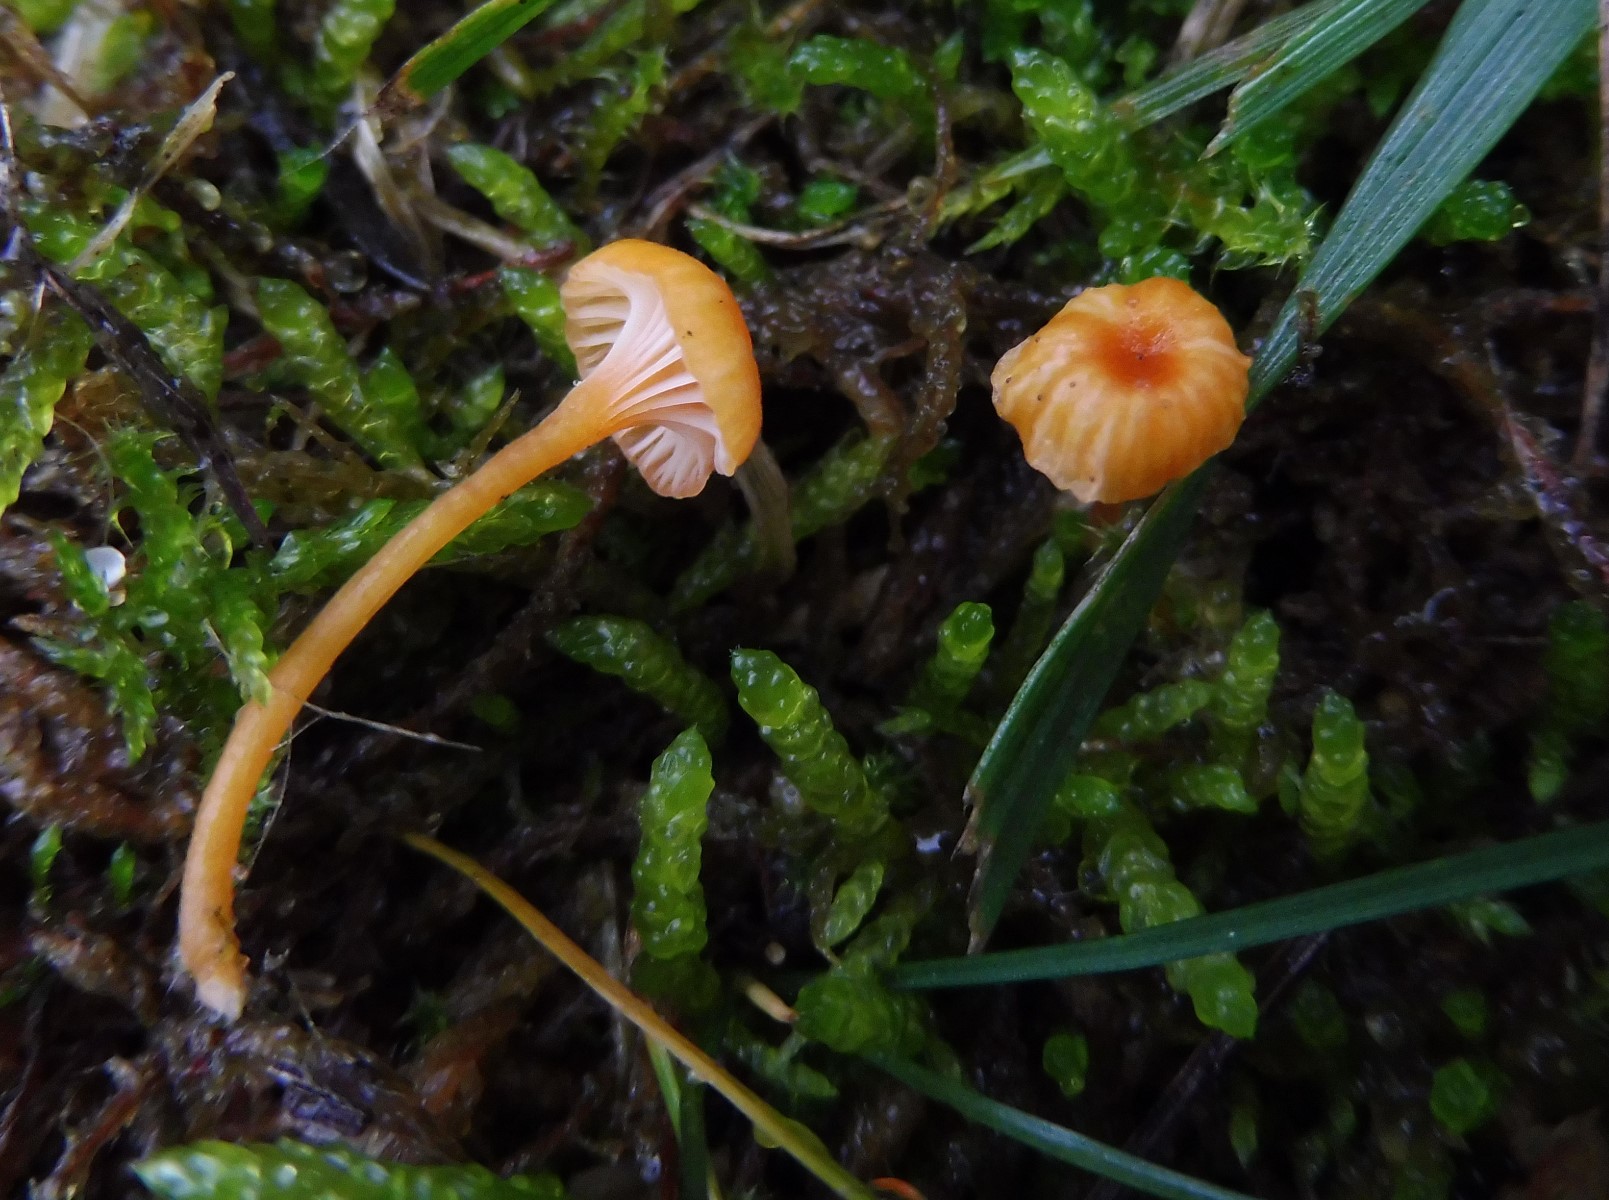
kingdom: Fungi
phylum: Basidiomycota
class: Agaricomycetes
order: Hymenochaetales
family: Rickenellaceae
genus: Rickenella
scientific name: Rickenella fibula
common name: orange mosnavlehat
